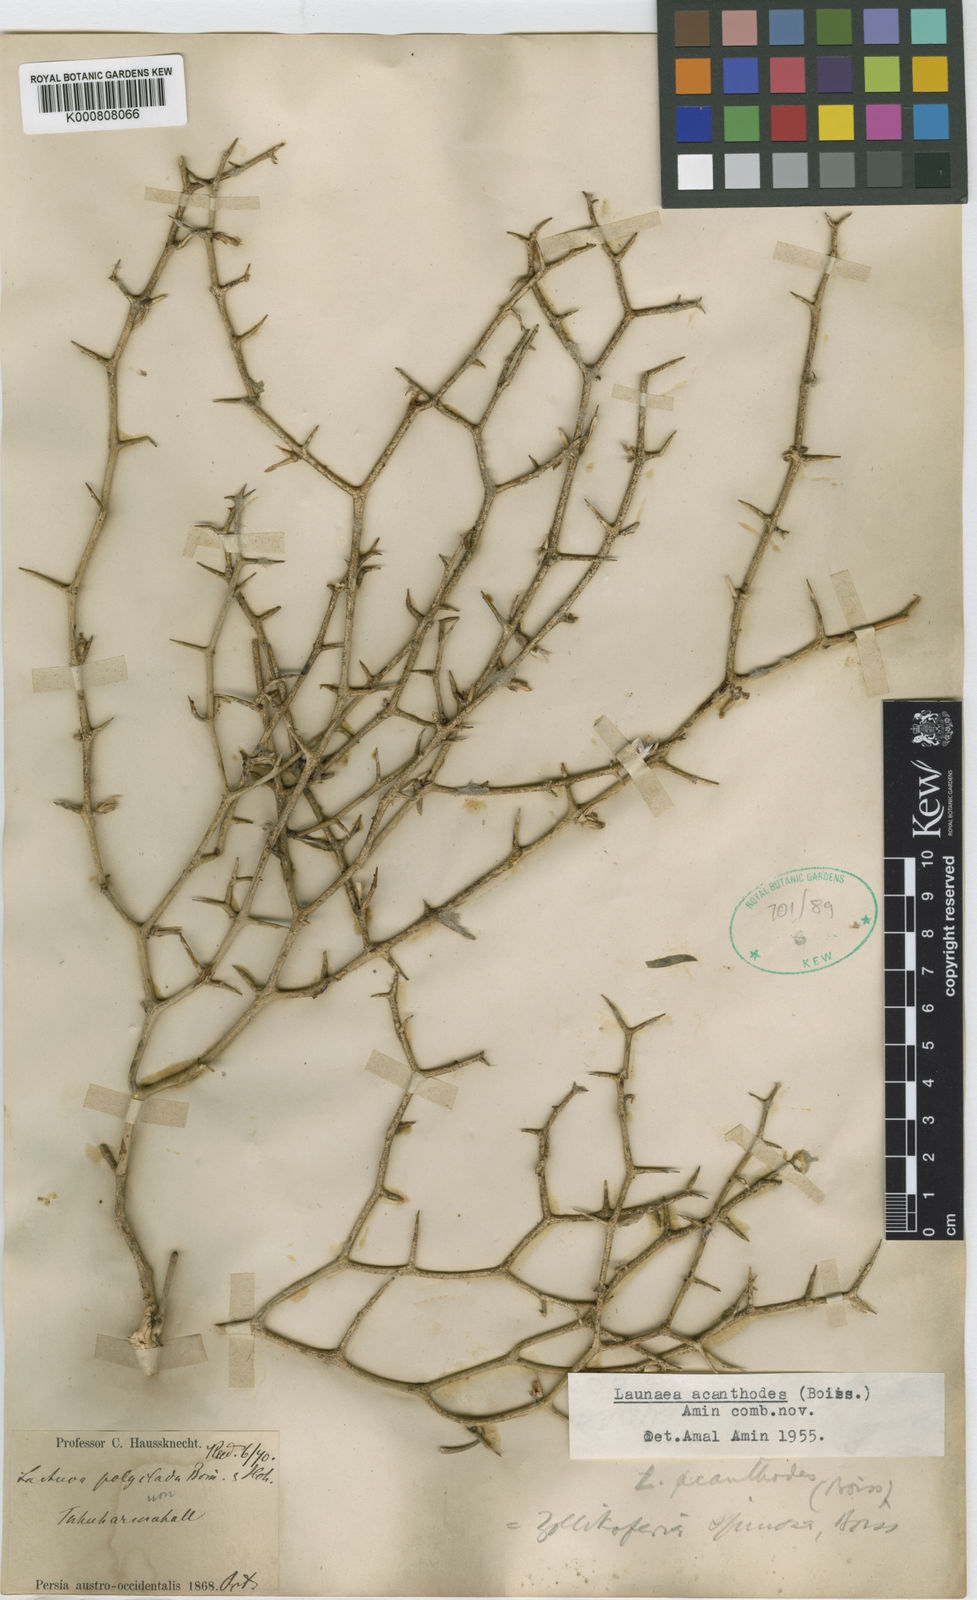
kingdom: Plantae
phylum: Tracheophyta
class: Magnoliopsida
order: Asterales
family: Asteraceae
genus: Launaea
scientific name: Launaea
